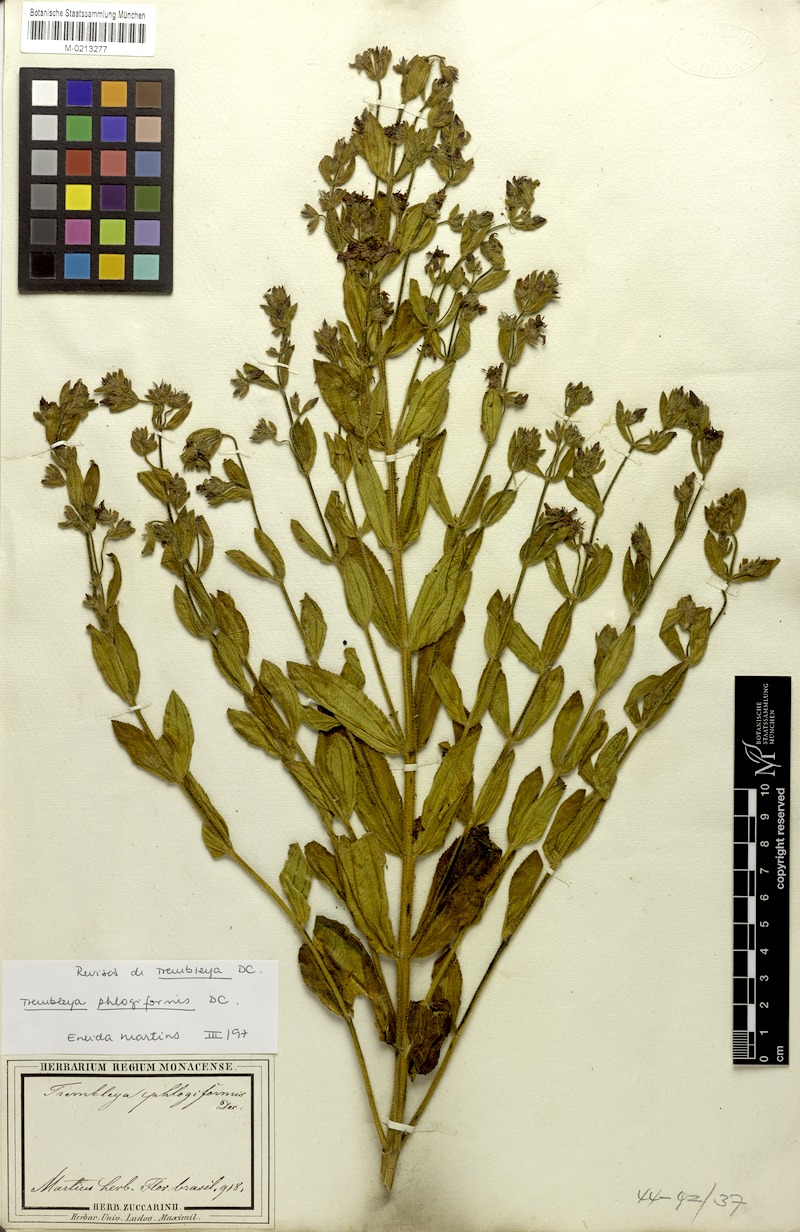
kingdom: Plantae
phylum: Tracheophyta
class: Magnoliopsida
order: Myrtales
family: Melastomataceae
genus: Microlicia
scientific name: Microlicia phlogiformis
